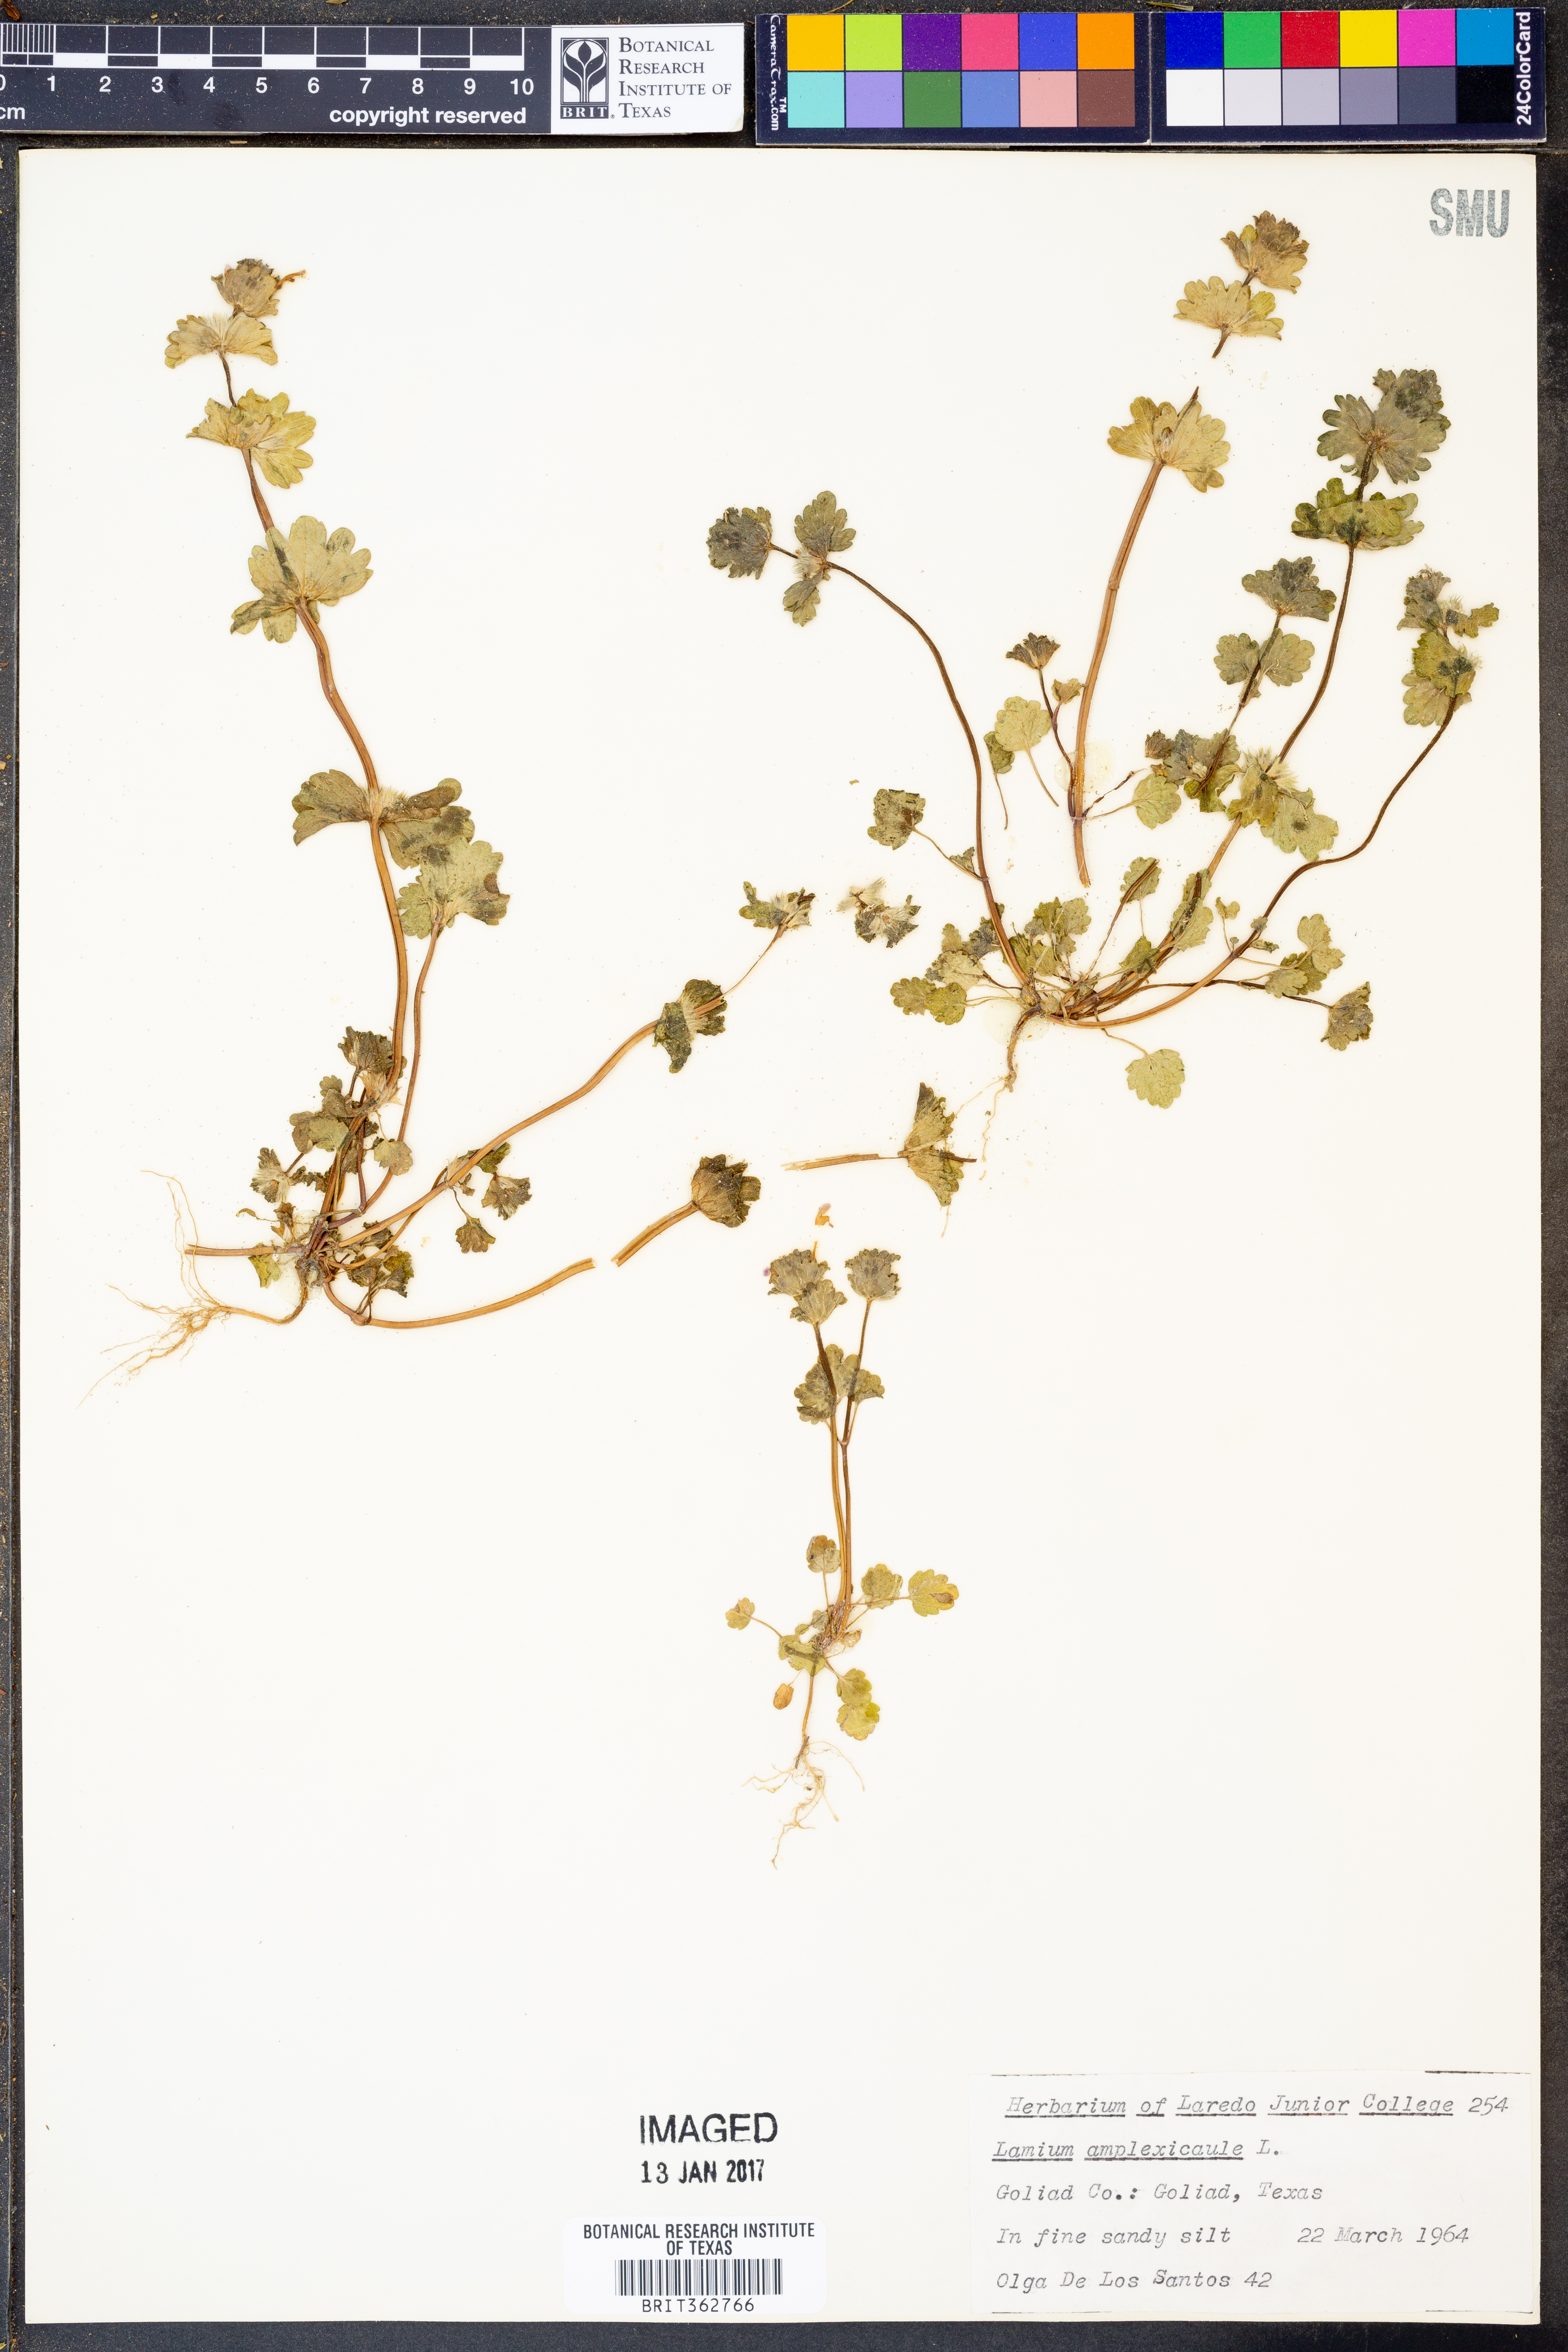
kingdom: Plantae
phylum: Tracheophyta
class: Magnoliopsida
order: Lamiales
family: Lamiaceae
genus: Lamium
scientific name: Lamium amplexicaule
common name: Henbit dead-nettle
